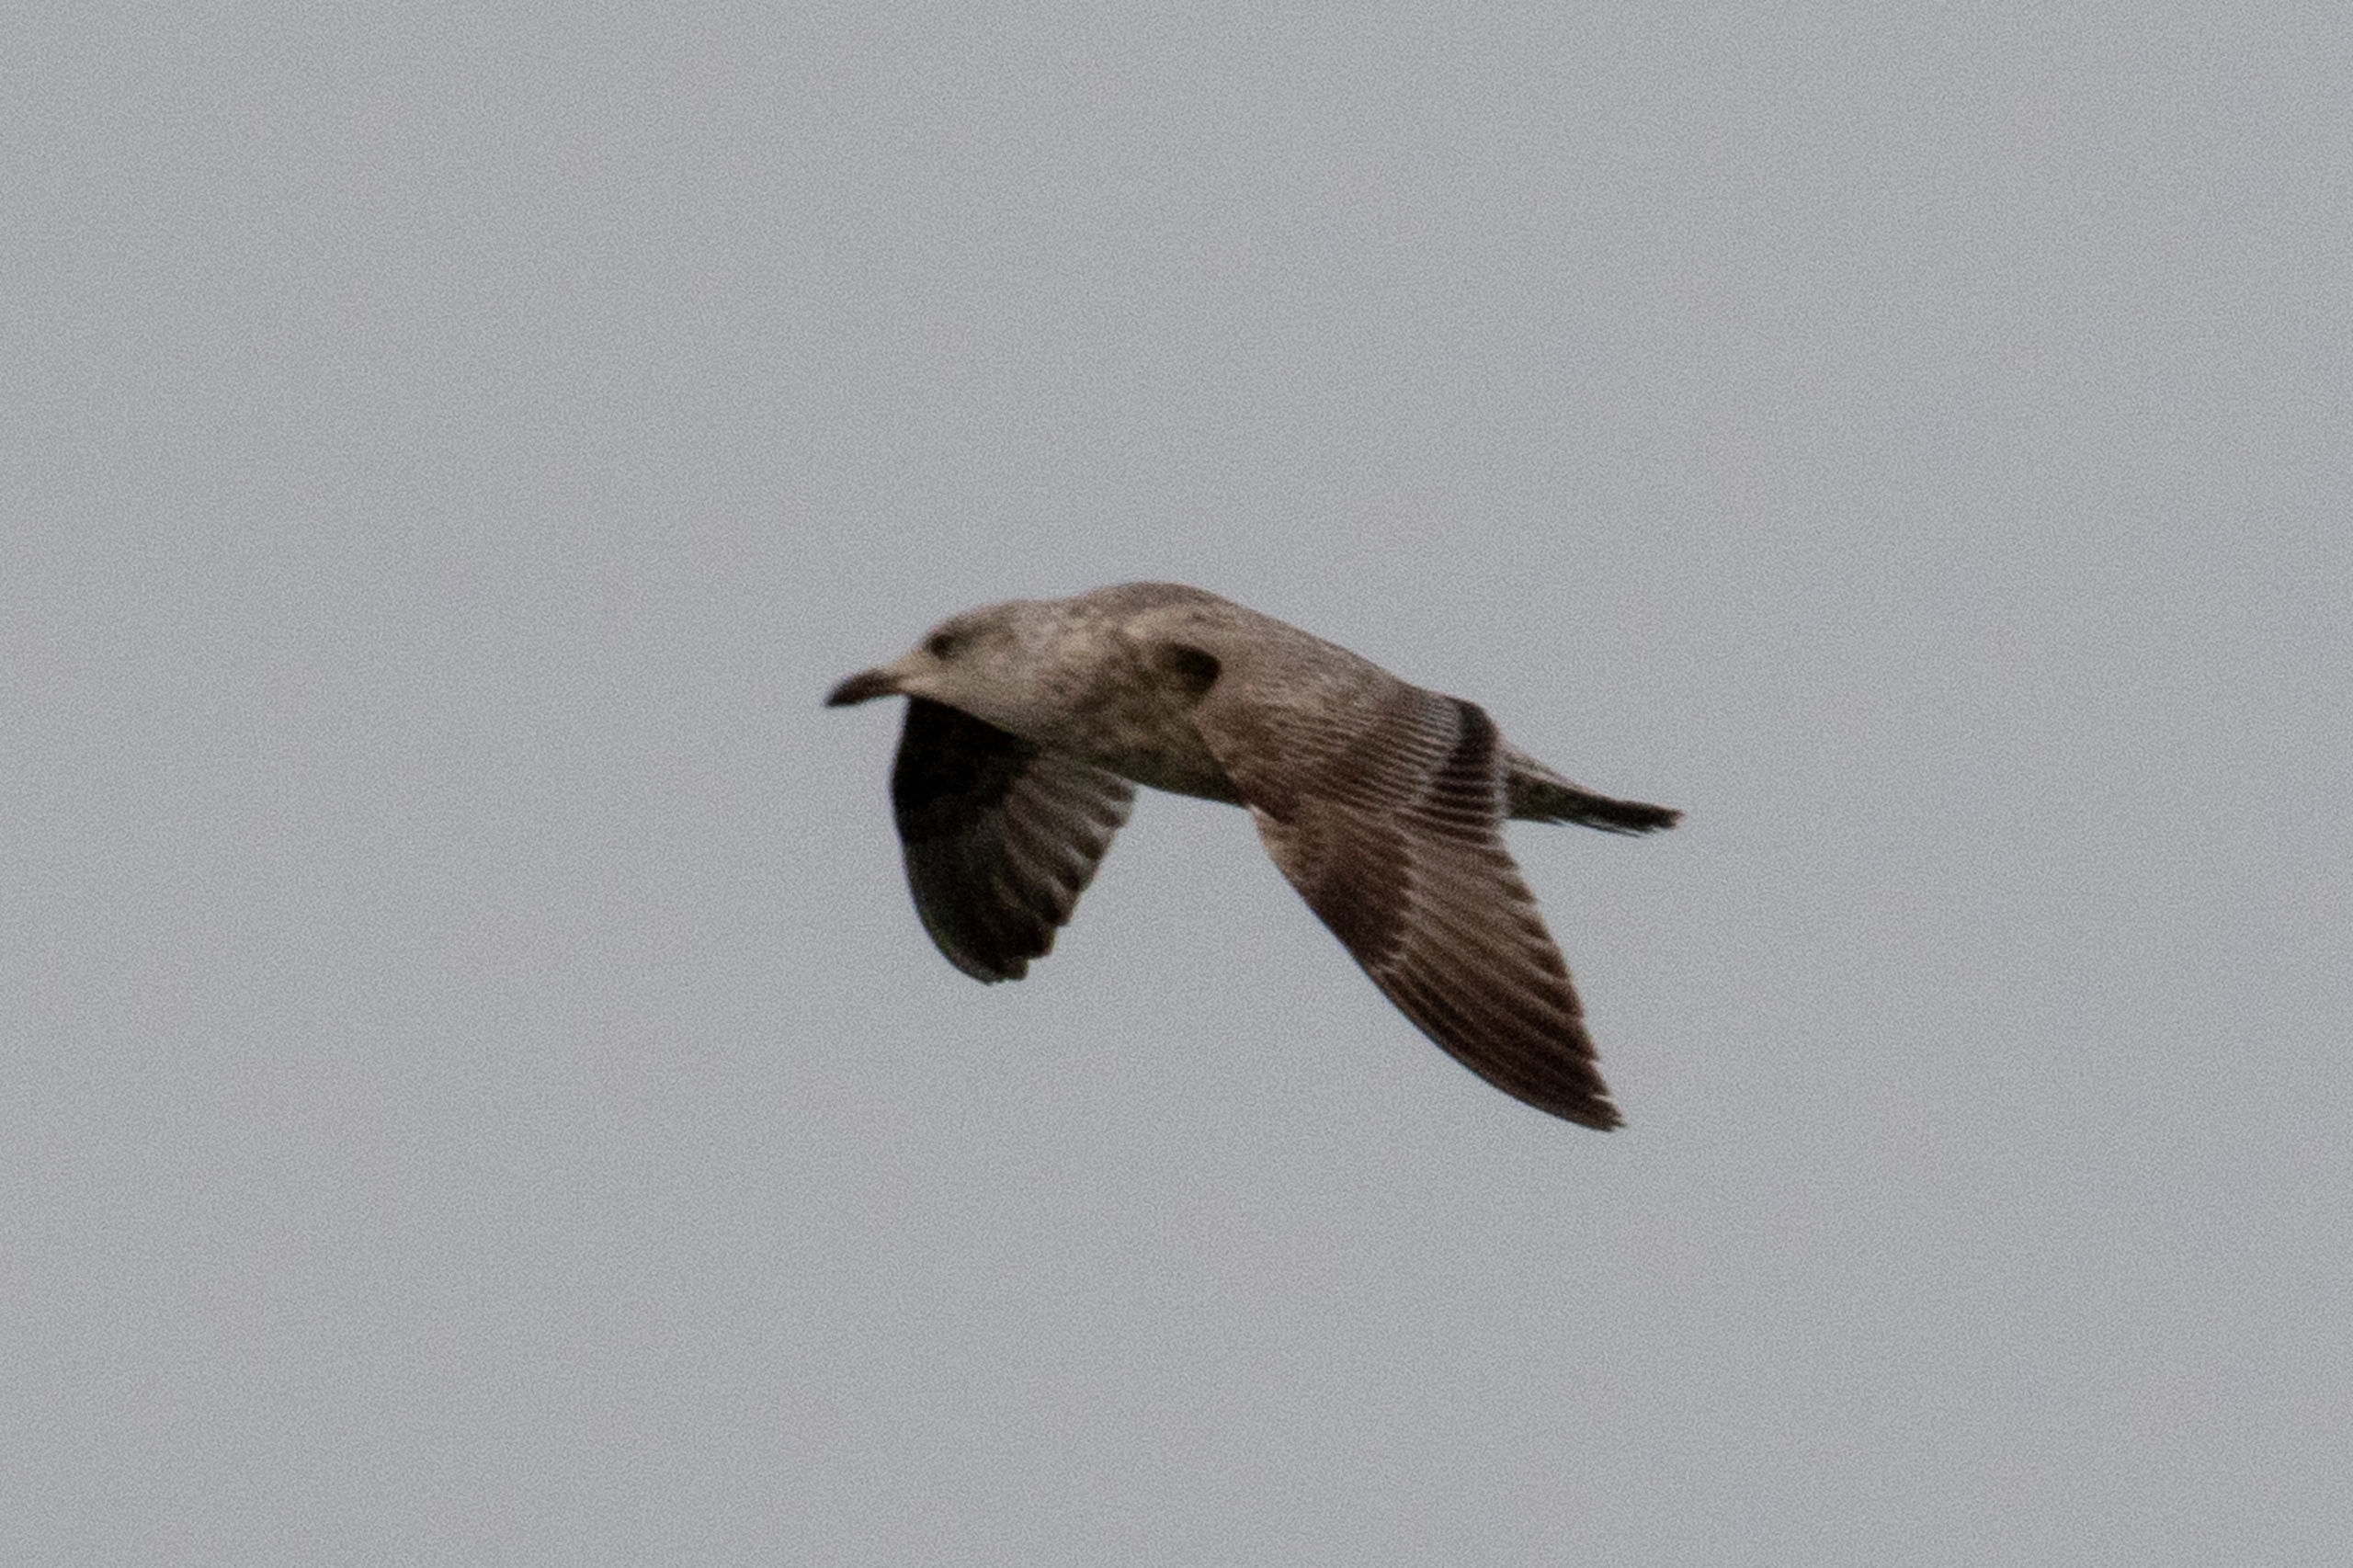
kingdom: Animalia
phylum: Chordata
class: Aves
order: Charadriiformes
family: Laridae
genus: Larus
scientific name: Larus argentatus
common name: Sølvmåge
